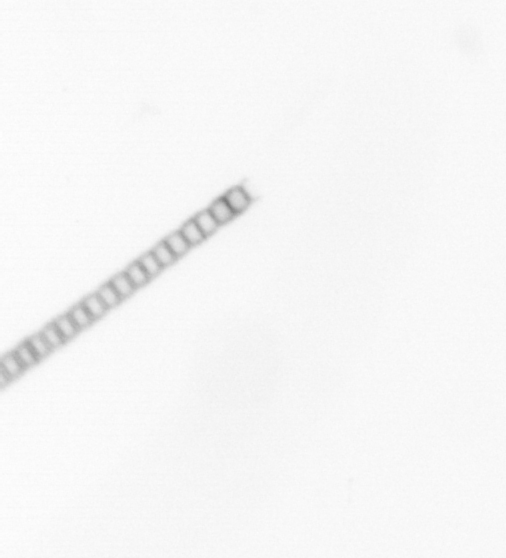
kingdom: Chromista
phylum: Ochrophyta
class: Bacillariophyceae
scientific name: Bacillariophyceae
